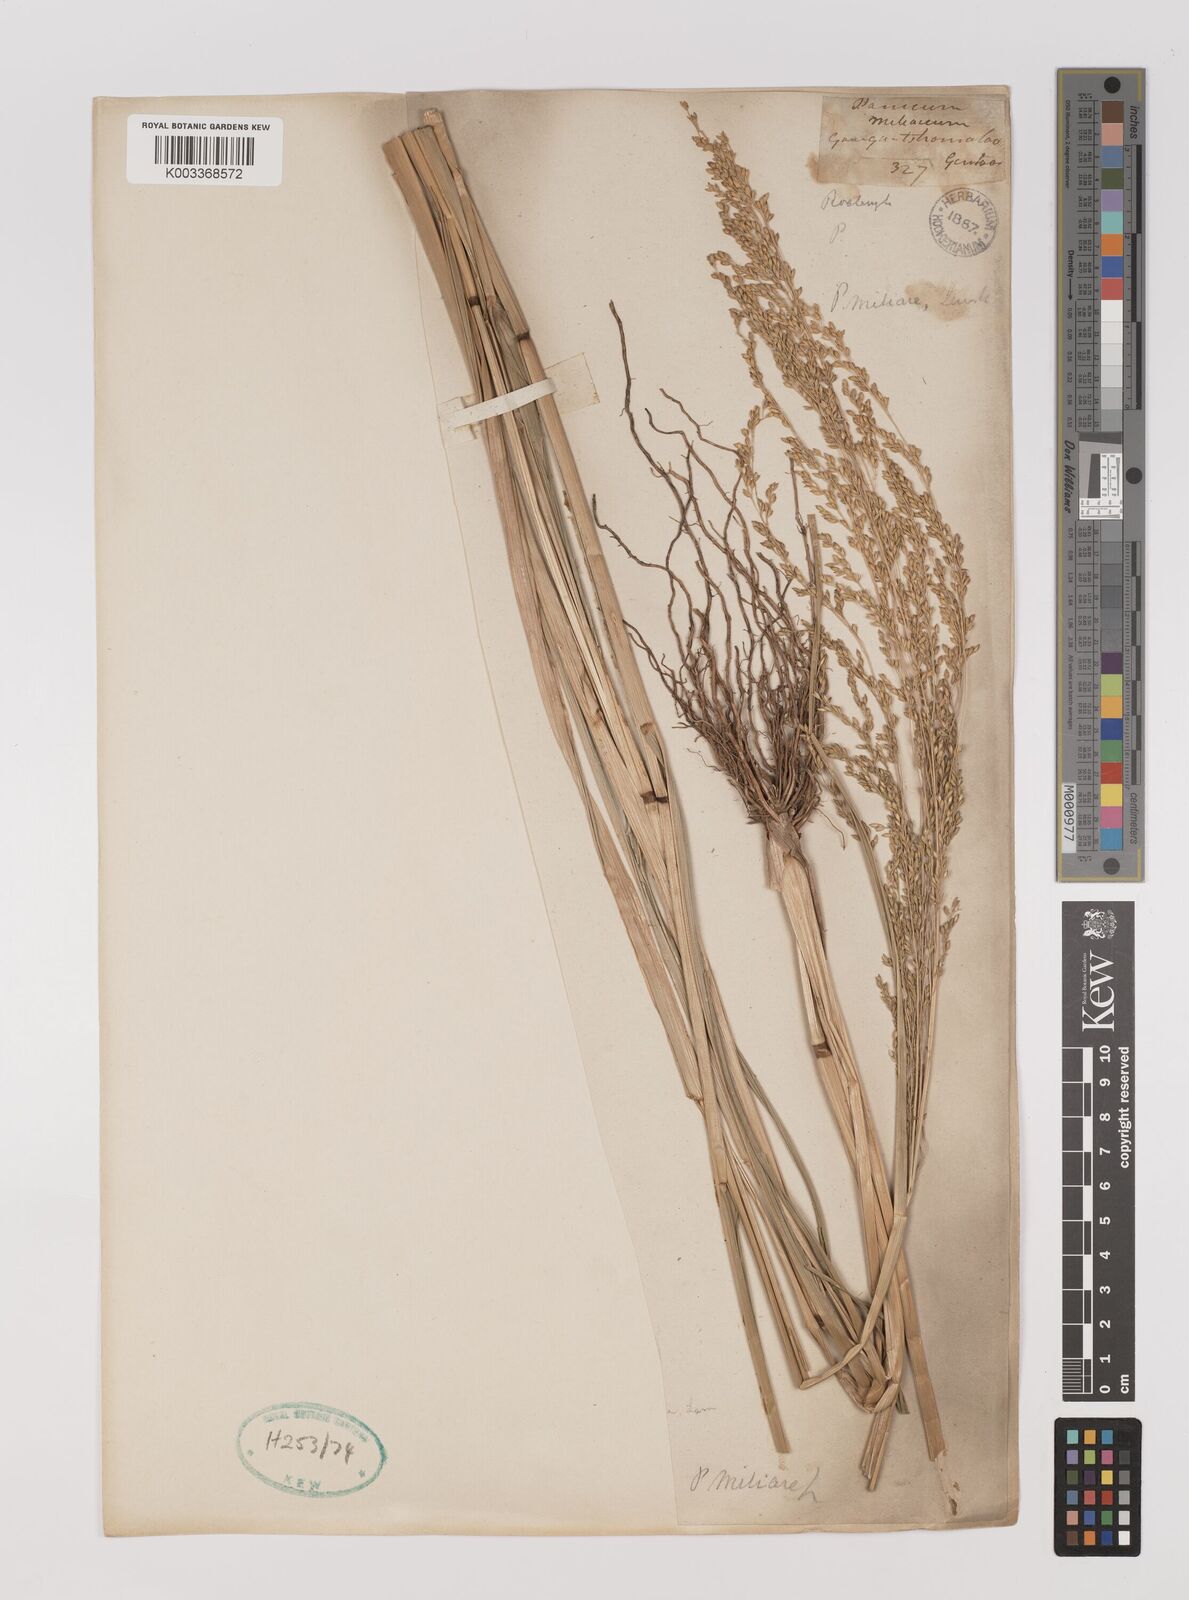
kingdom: Plantae
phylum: Tracheophyta
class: Liliopsida
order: Poales
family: Poaceae
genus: Panicum
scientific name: Panicum sumatrense
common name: Little millet
